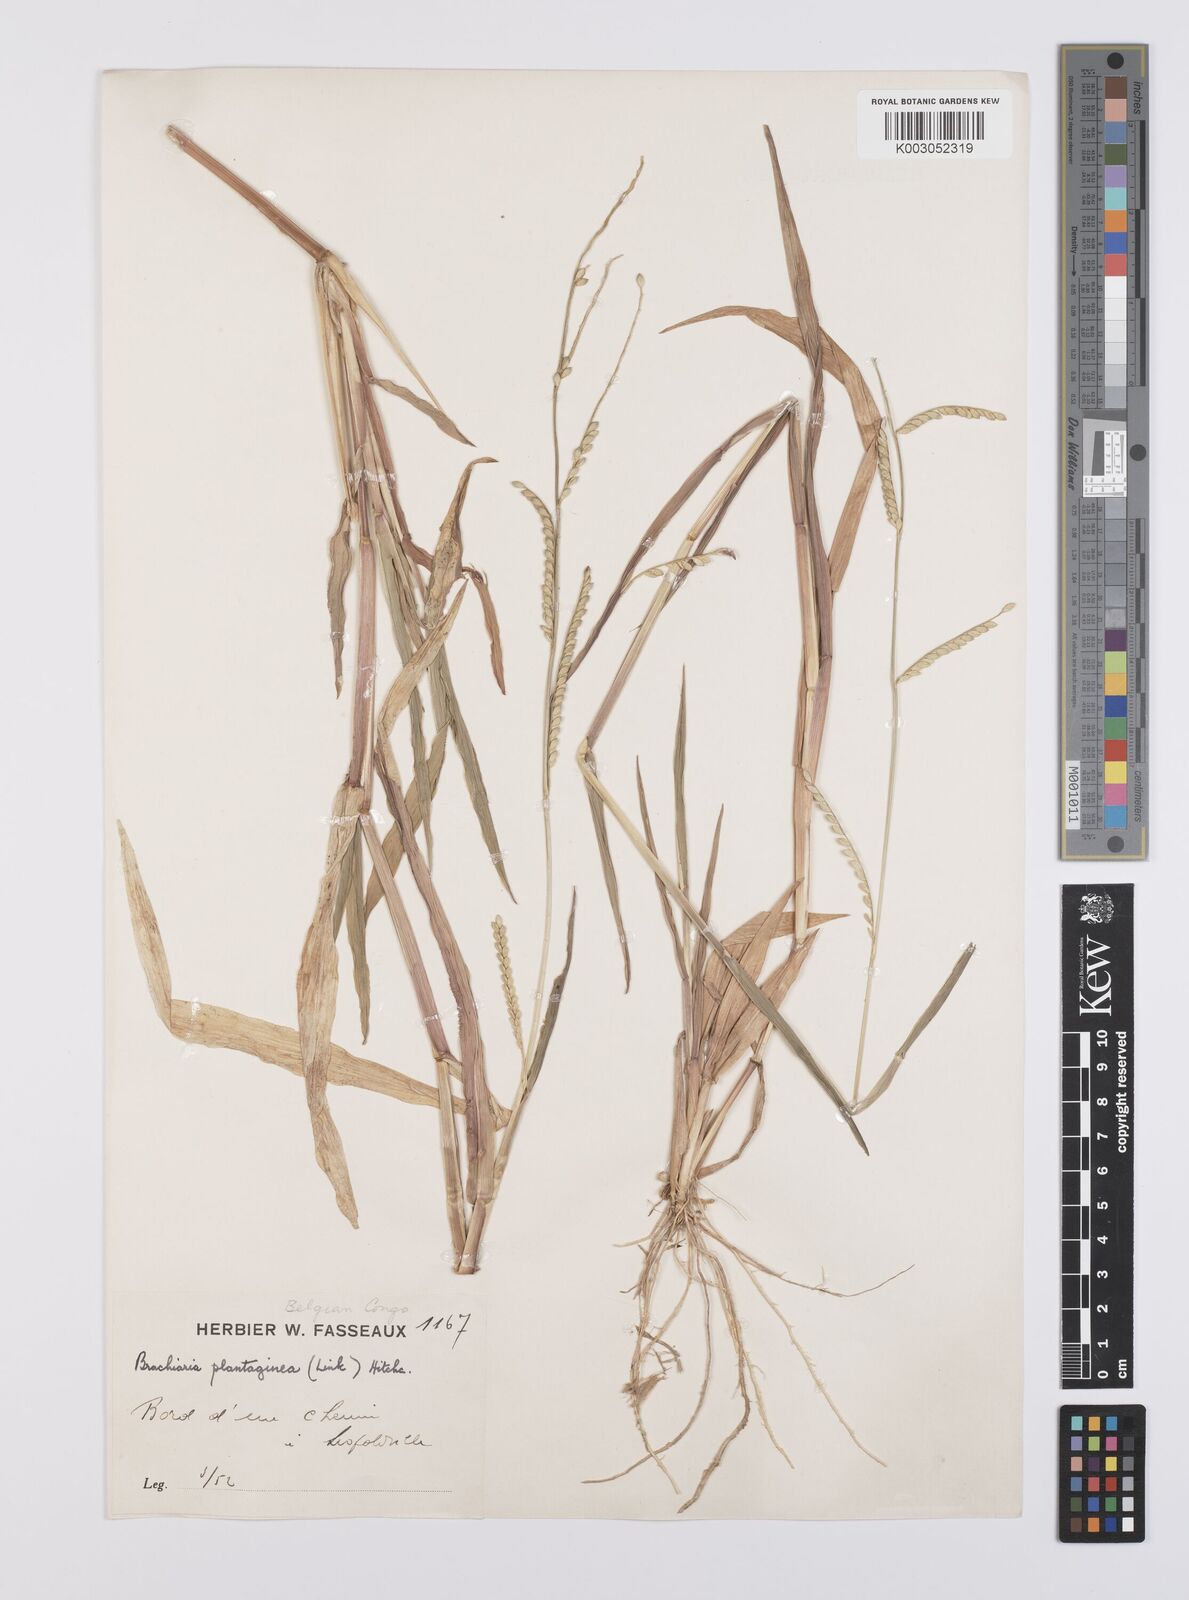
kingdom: Plantae
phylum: Tracheophyta
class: Liliopsida
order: Poales
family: Poaceae
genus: Urochloa
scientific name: Urochloa oligobrachiata
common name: Weak signalgrass
